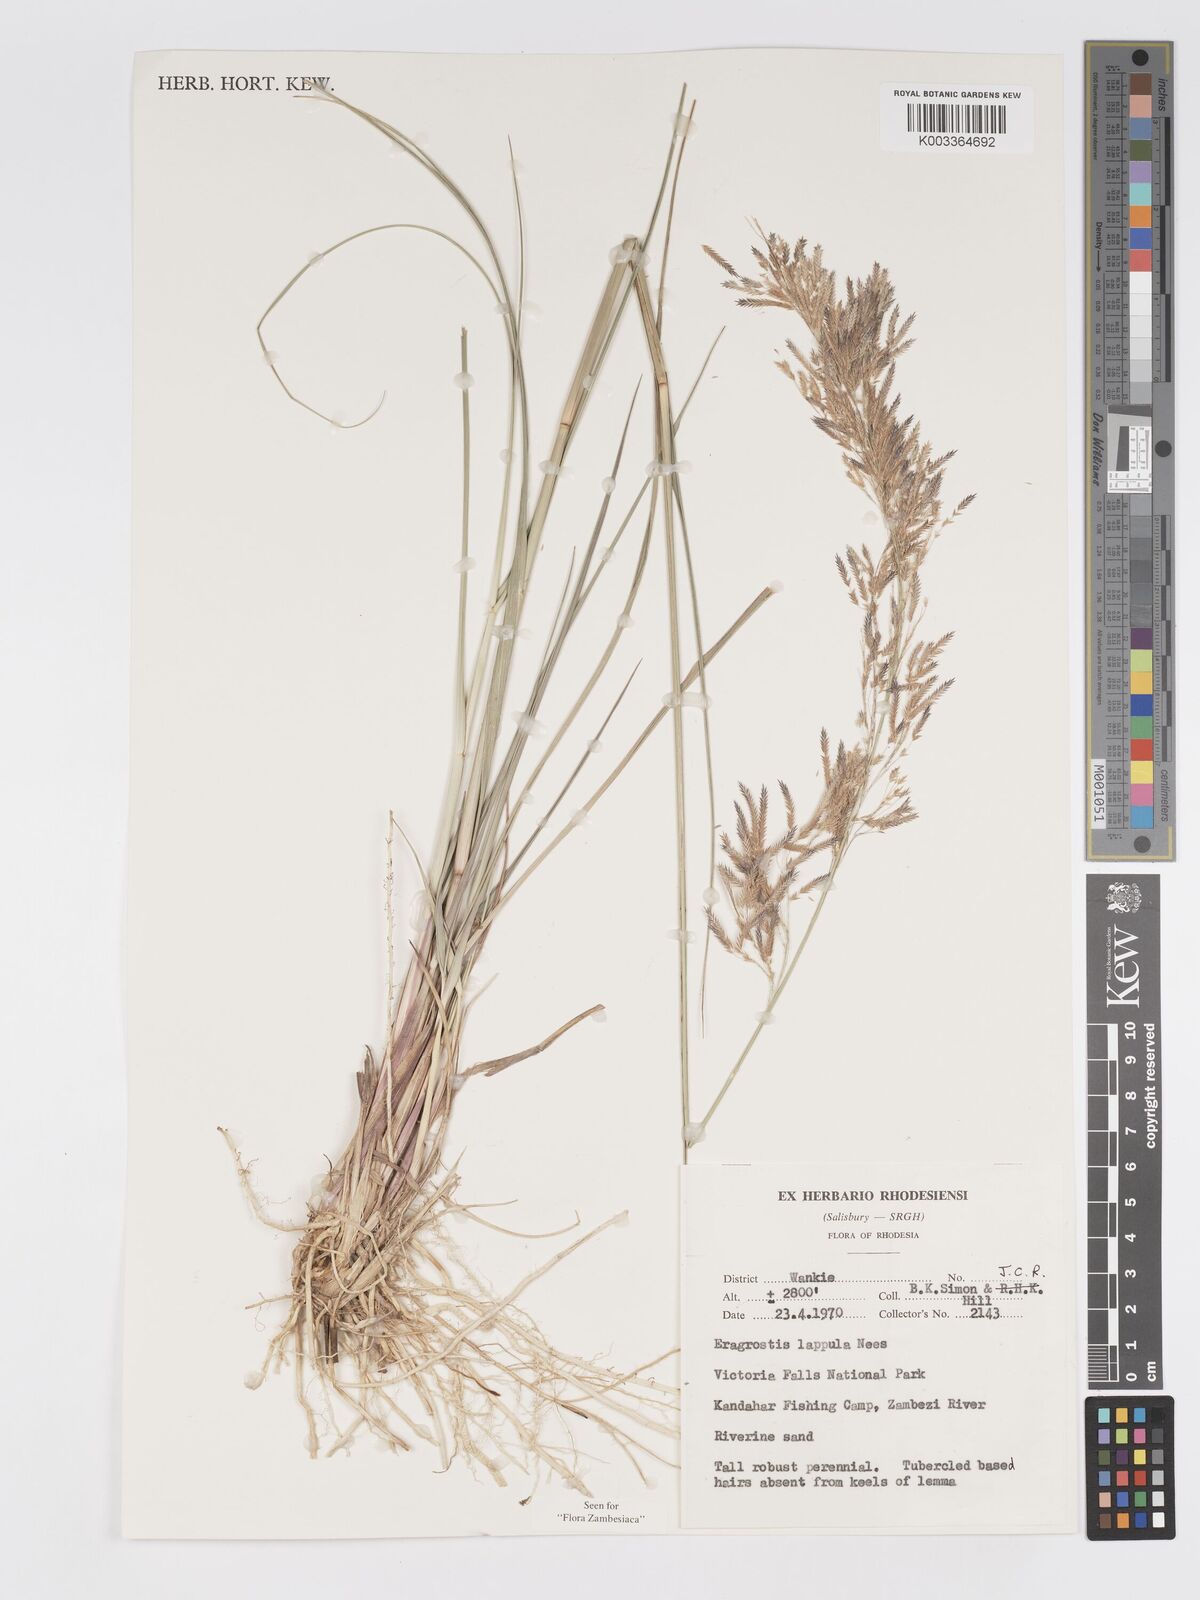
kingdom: Plantae
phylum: Tracheophyta
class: Liliopsida
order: Poales
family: Poaceae
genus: Eragrostis
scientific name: Eragrostis lappula
